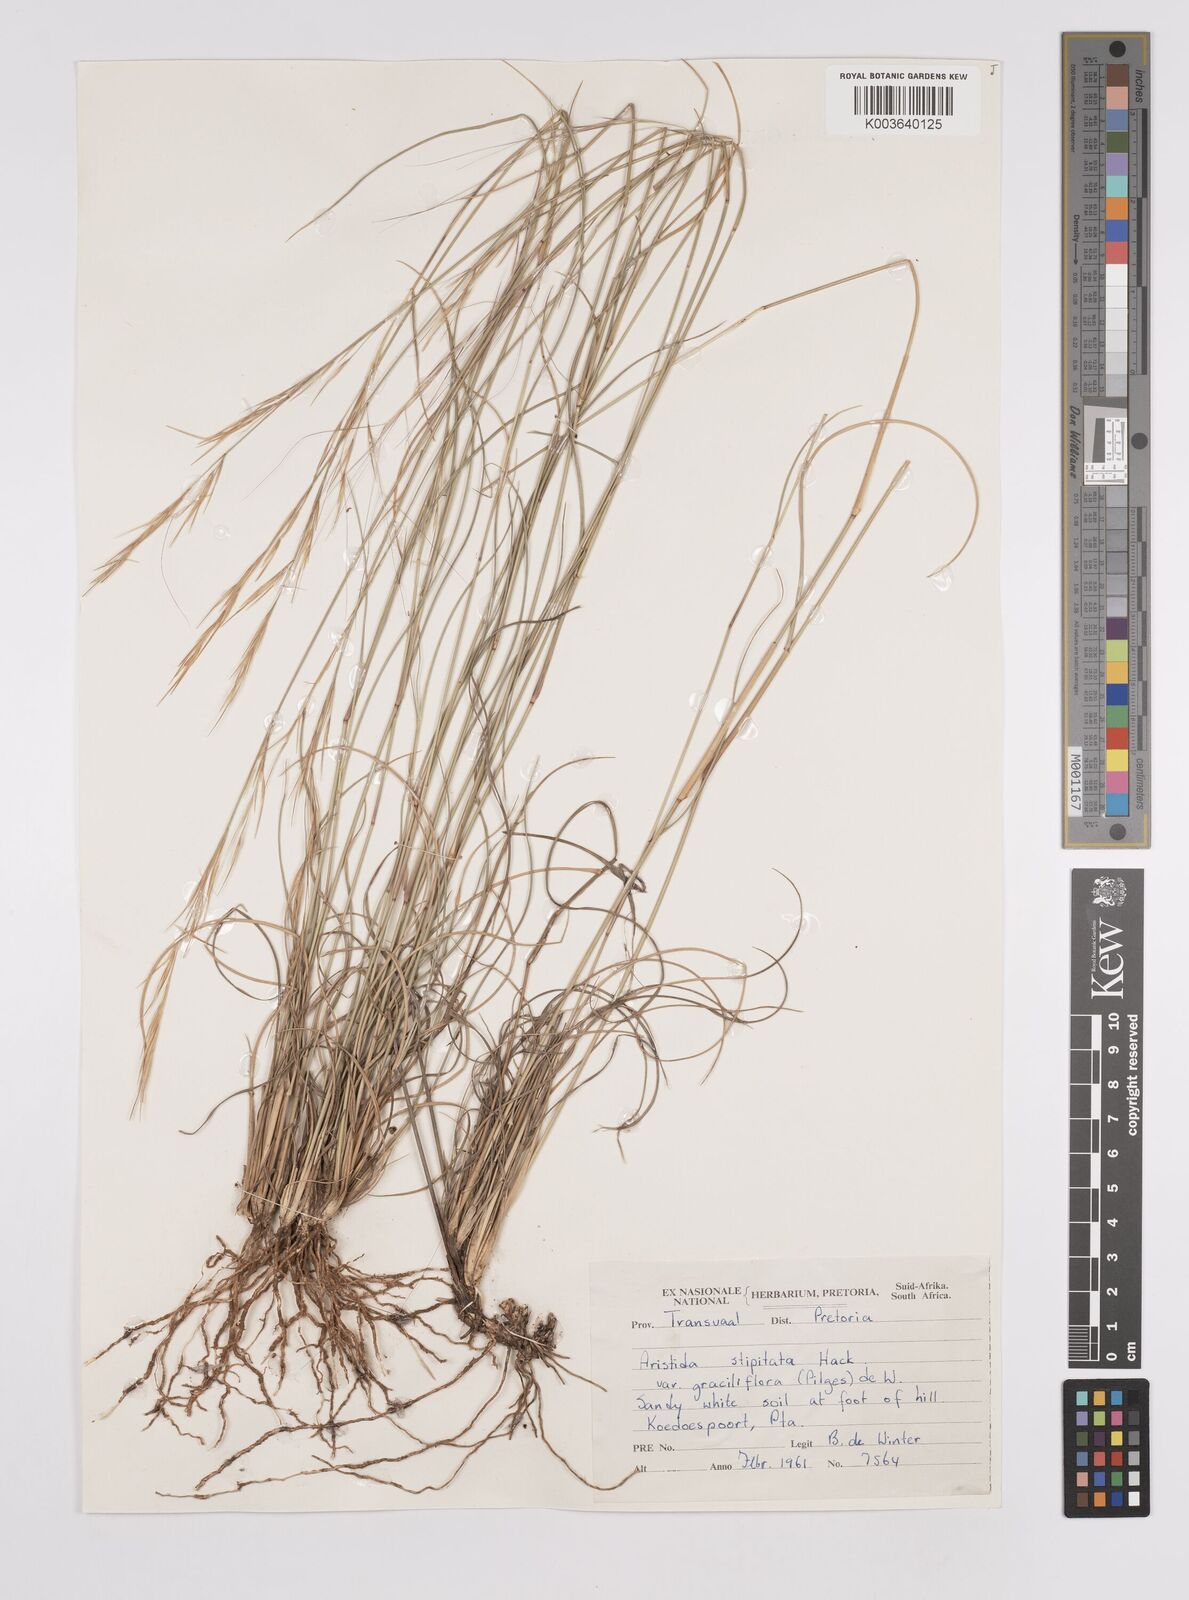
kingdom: Plantae
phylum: Tracheophyta
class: Liliopsida
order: Poales
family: Poaceae
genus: Aristida
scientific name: Aristida stipitata
